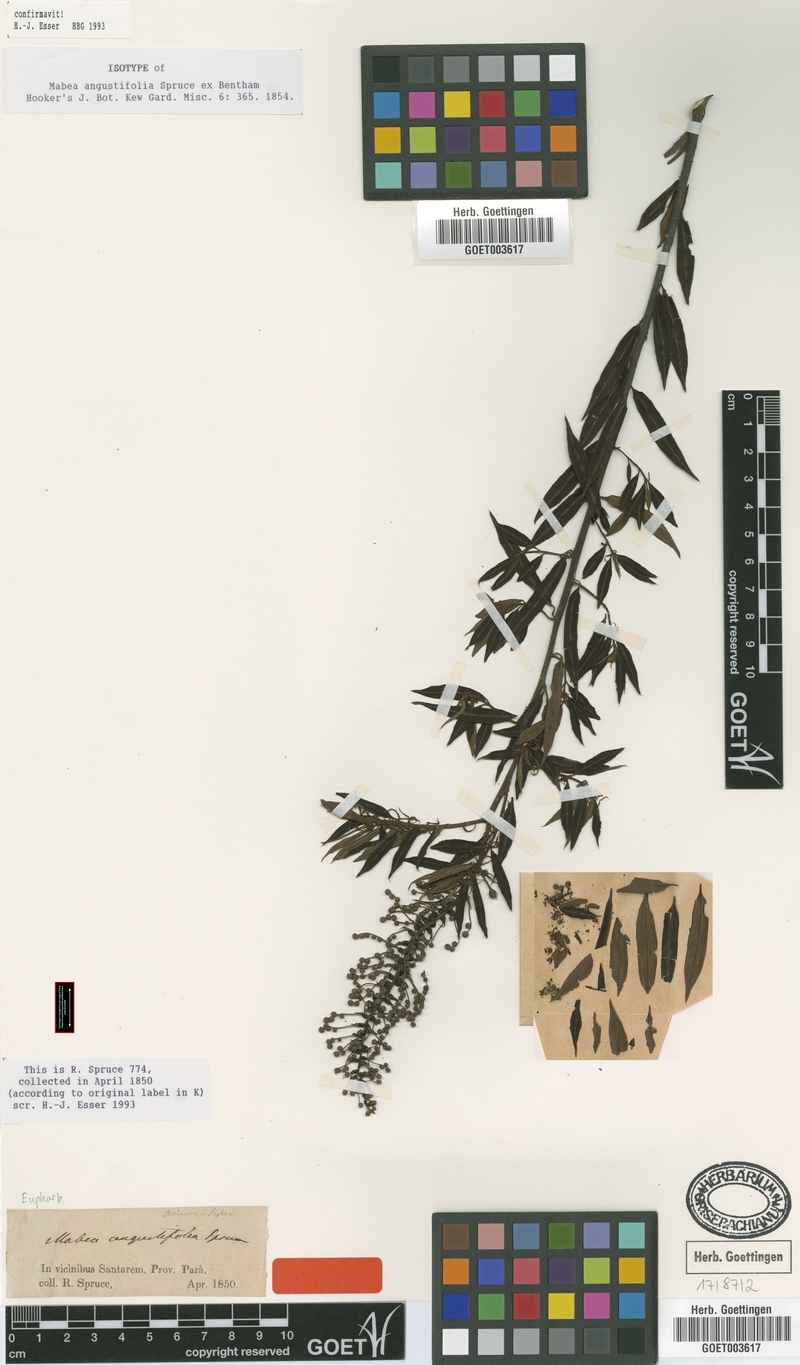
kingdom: Plantae
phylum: Tracheophyta
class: Magnoliopsida
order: Malpighiales
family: Euphorbiaceae
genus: Mabea
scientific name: Mabea angustifolia
